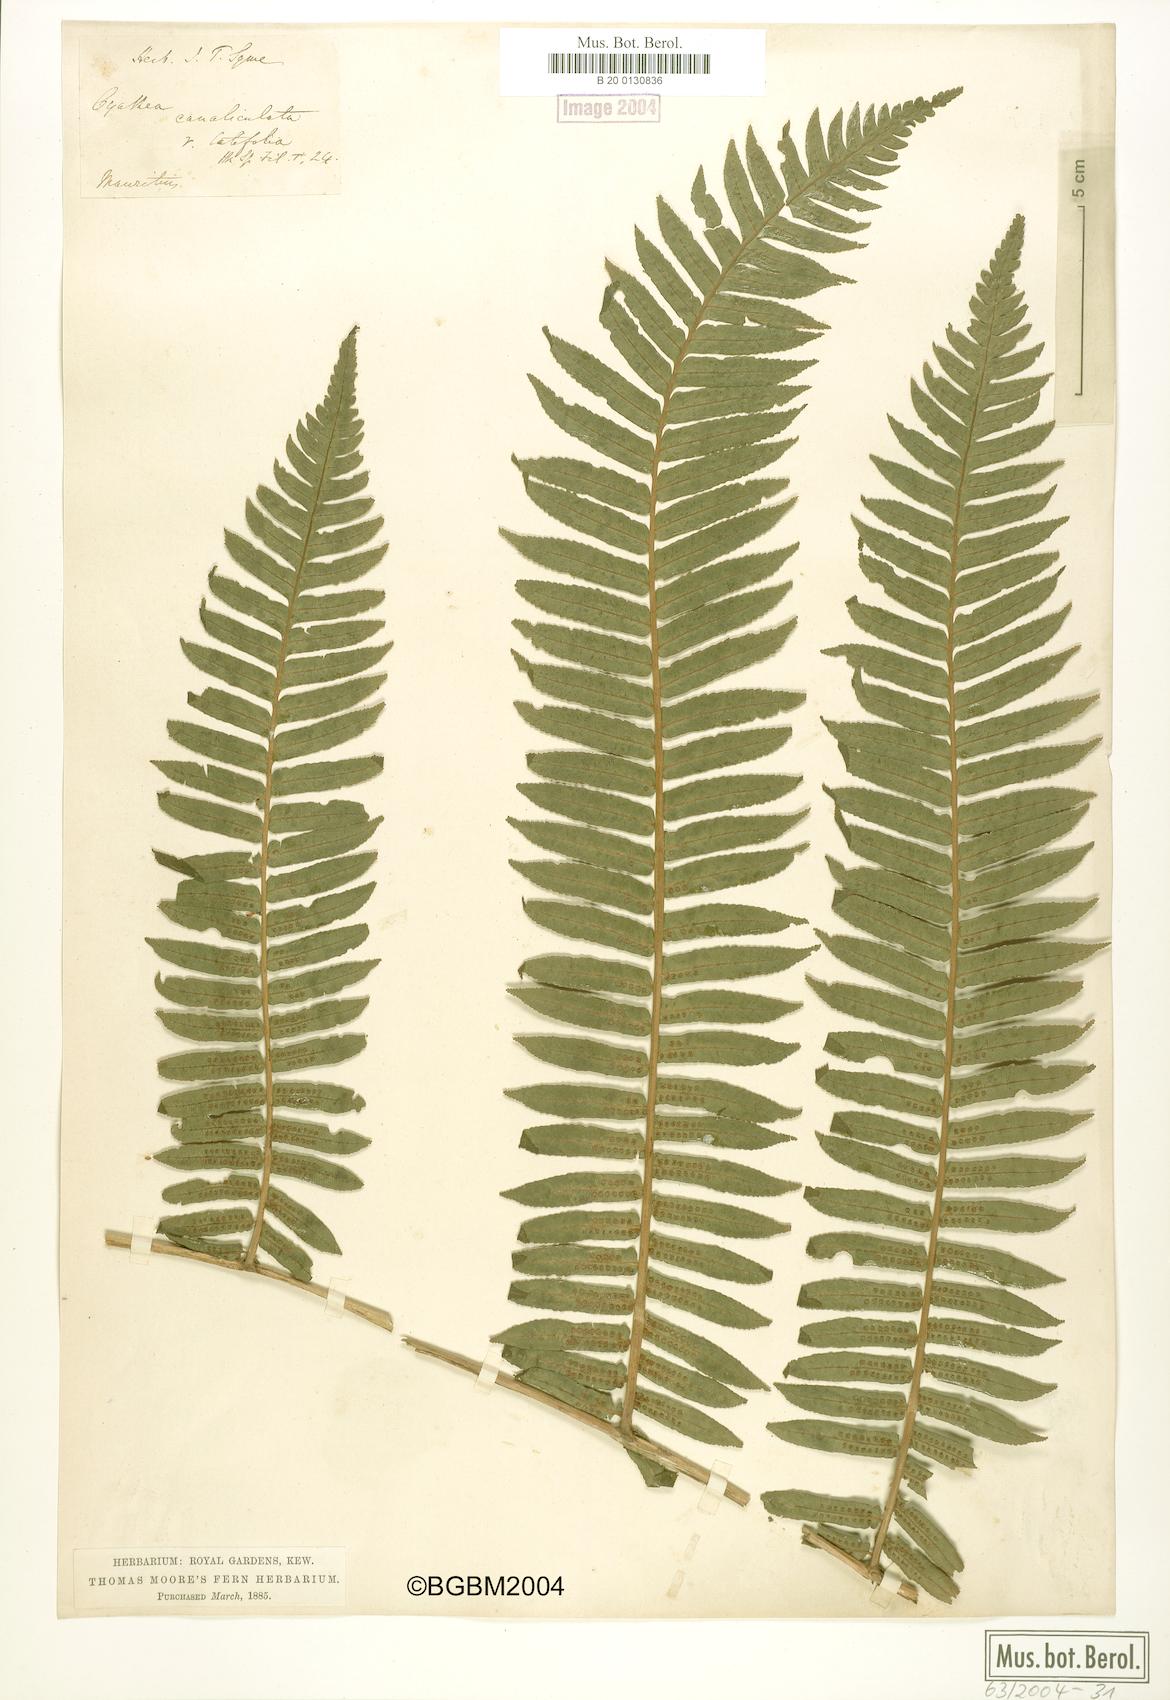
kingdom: Plantae
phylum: Tracheophyta
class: Polypodiopsida
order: Cyatheales
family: Cyatheaceae
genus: Alsophila
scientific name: Alsophila celsa
